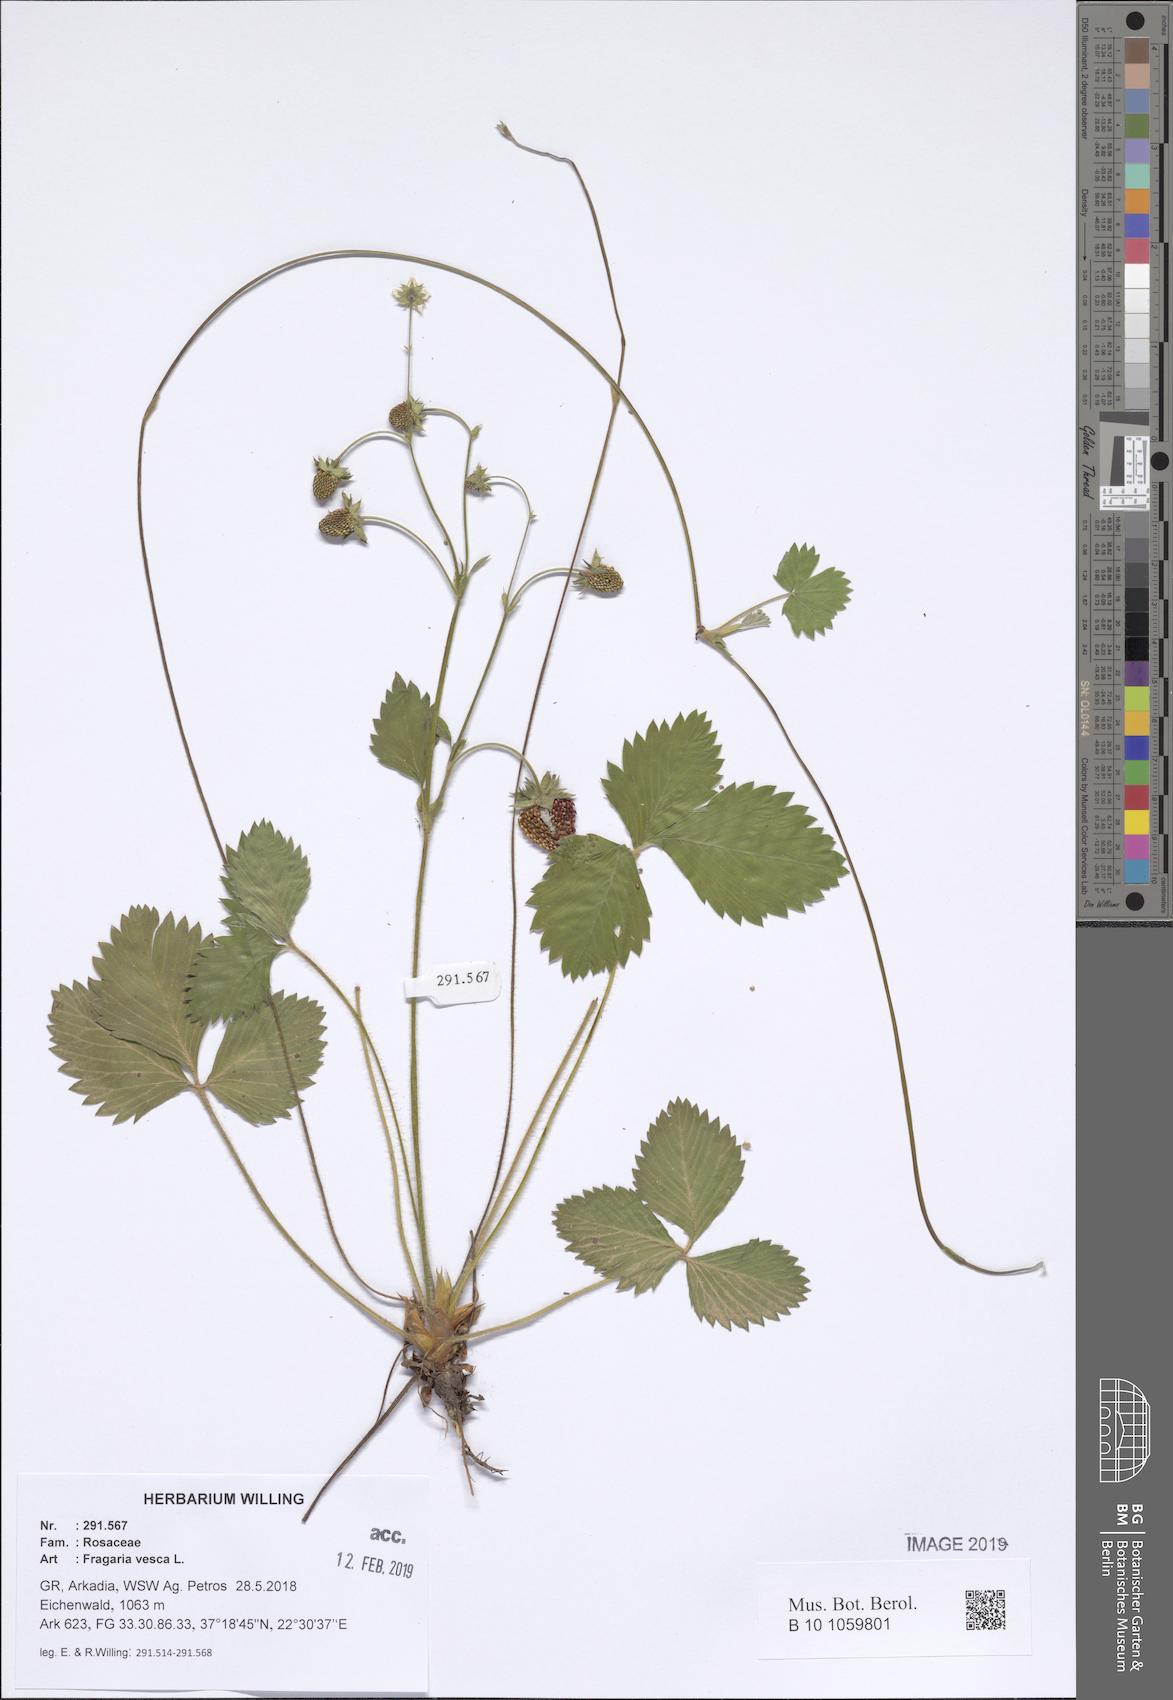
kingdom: Plantae
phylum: Tracheophyta
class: Magnoliopsida
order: Rosales
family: Rosaceae
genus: Fragaria
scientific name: Fragaria vesca
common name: Wild strawberry
